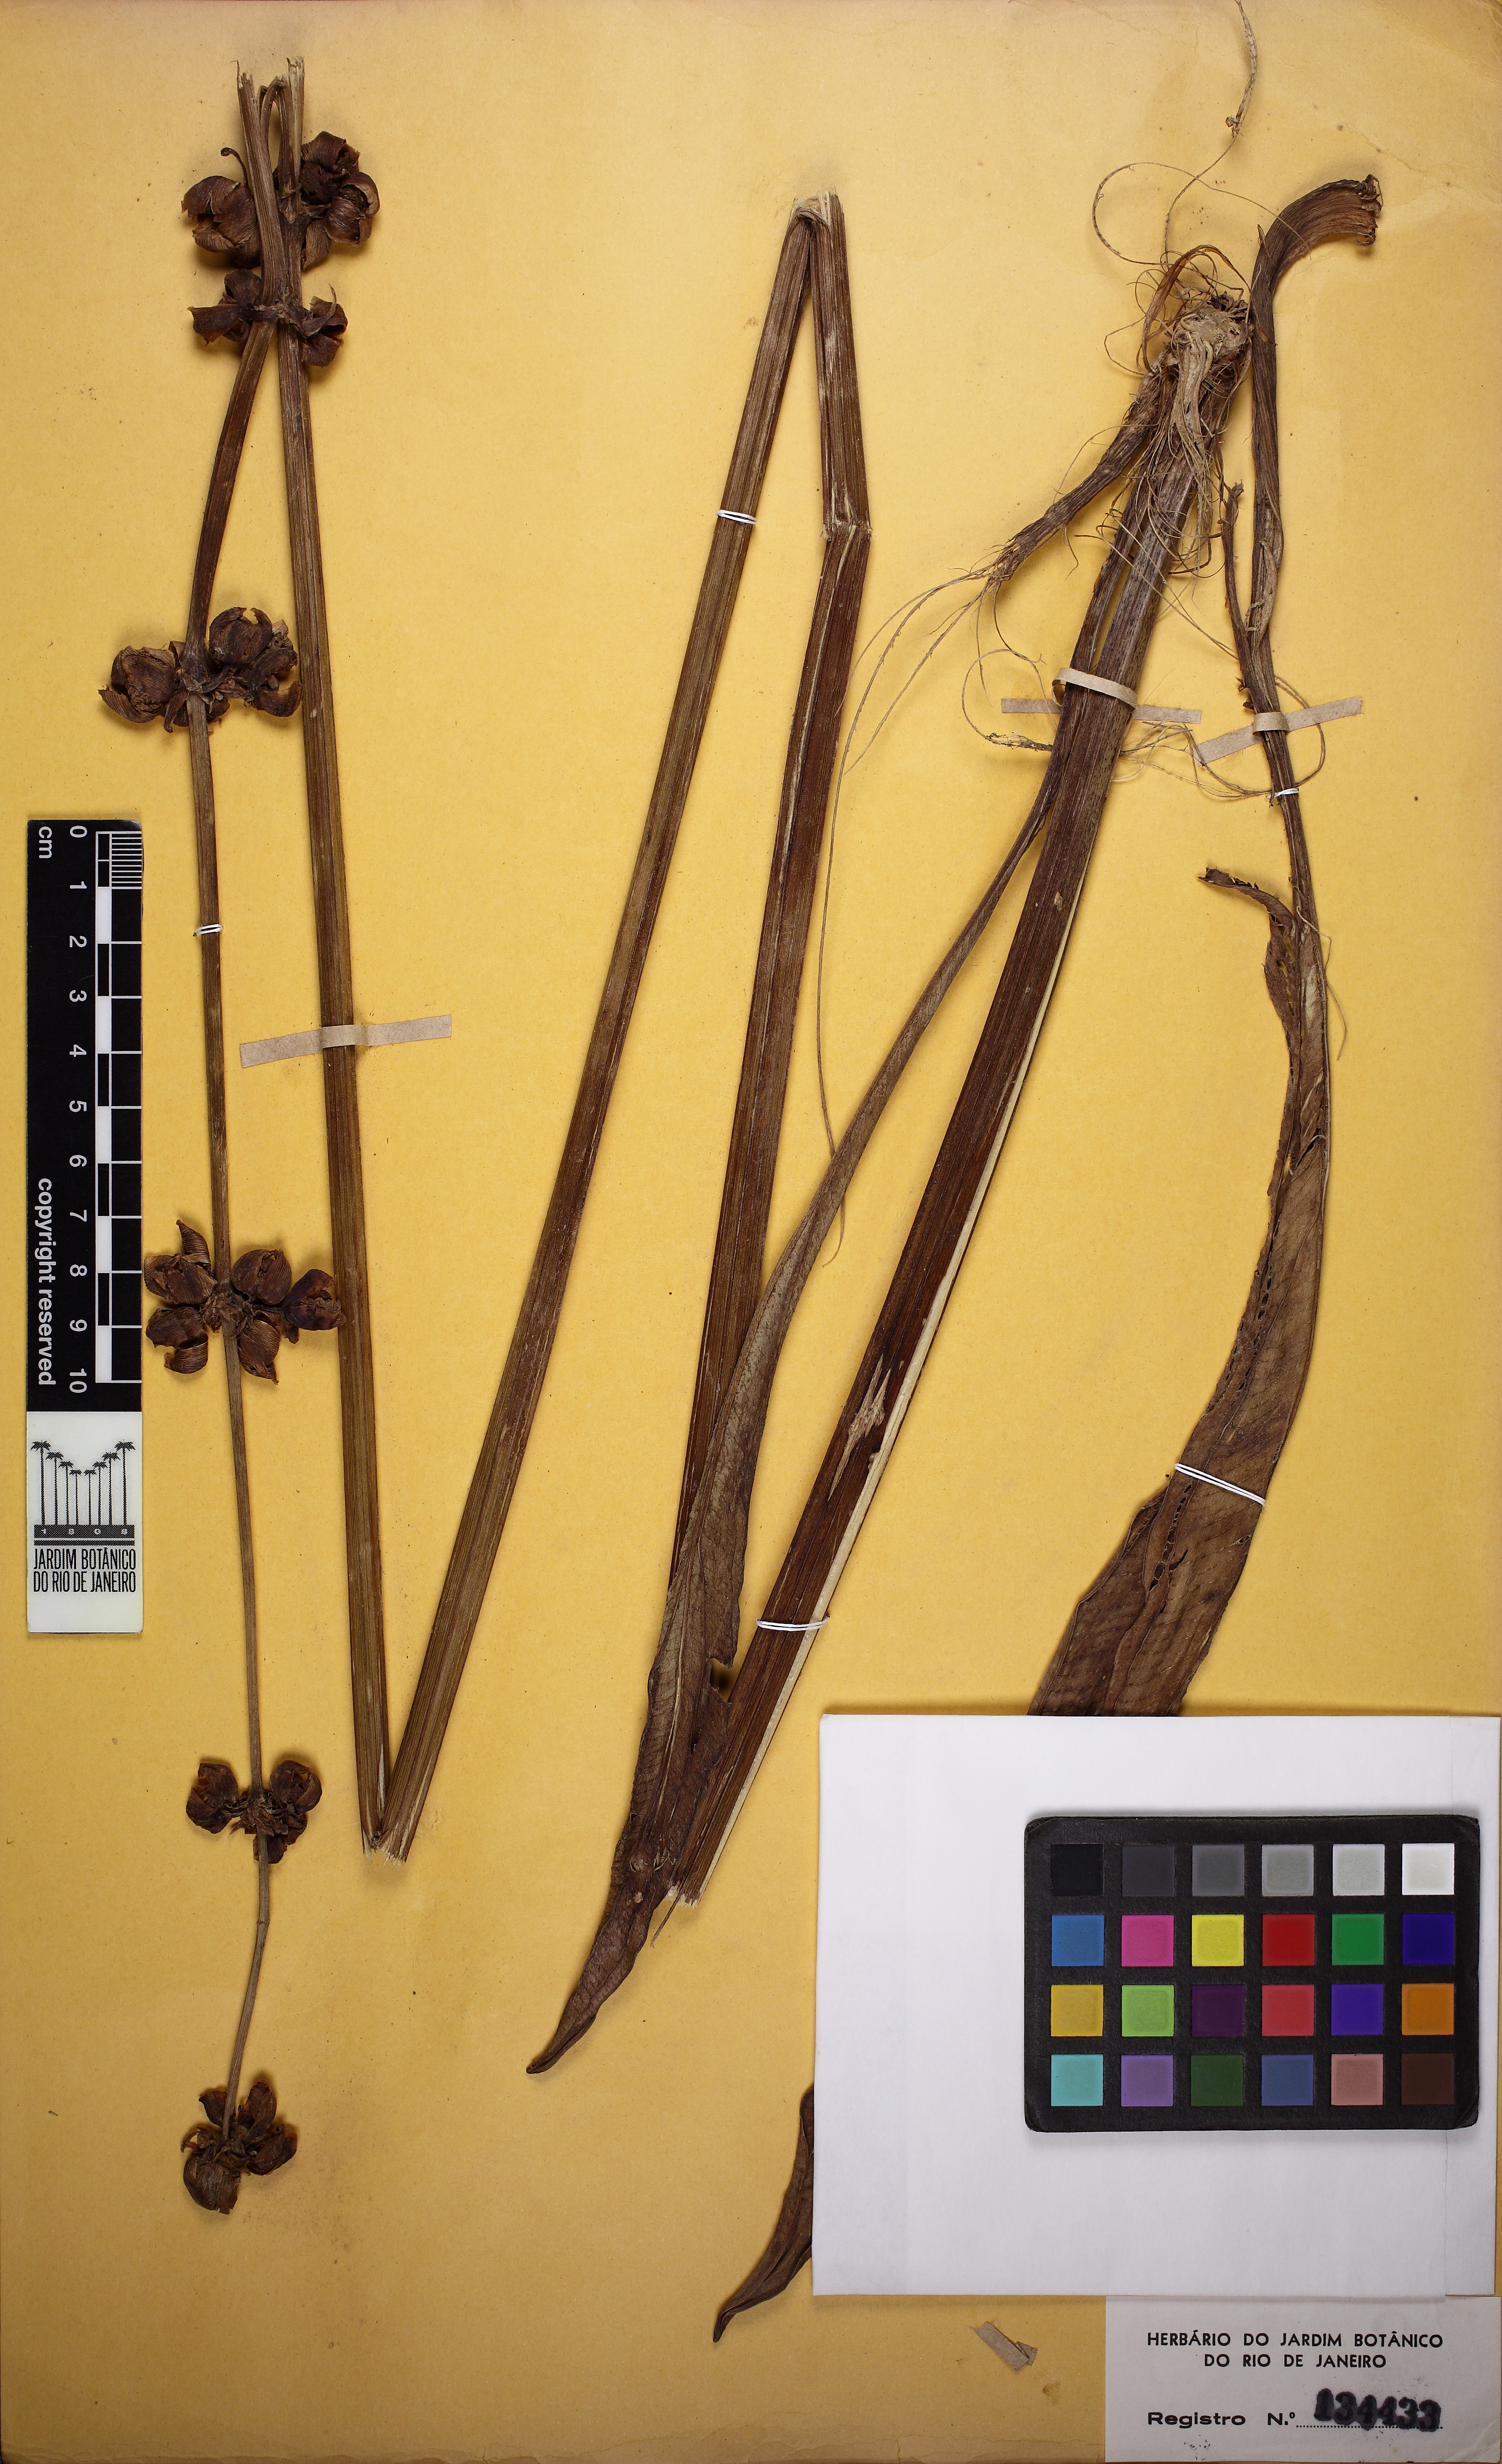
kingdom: Plantae
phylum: Tracheophyta
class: Liliopsida
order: Alismatales
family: Alismataceae
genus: Aquarius
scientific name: Aquarius longipetalus
